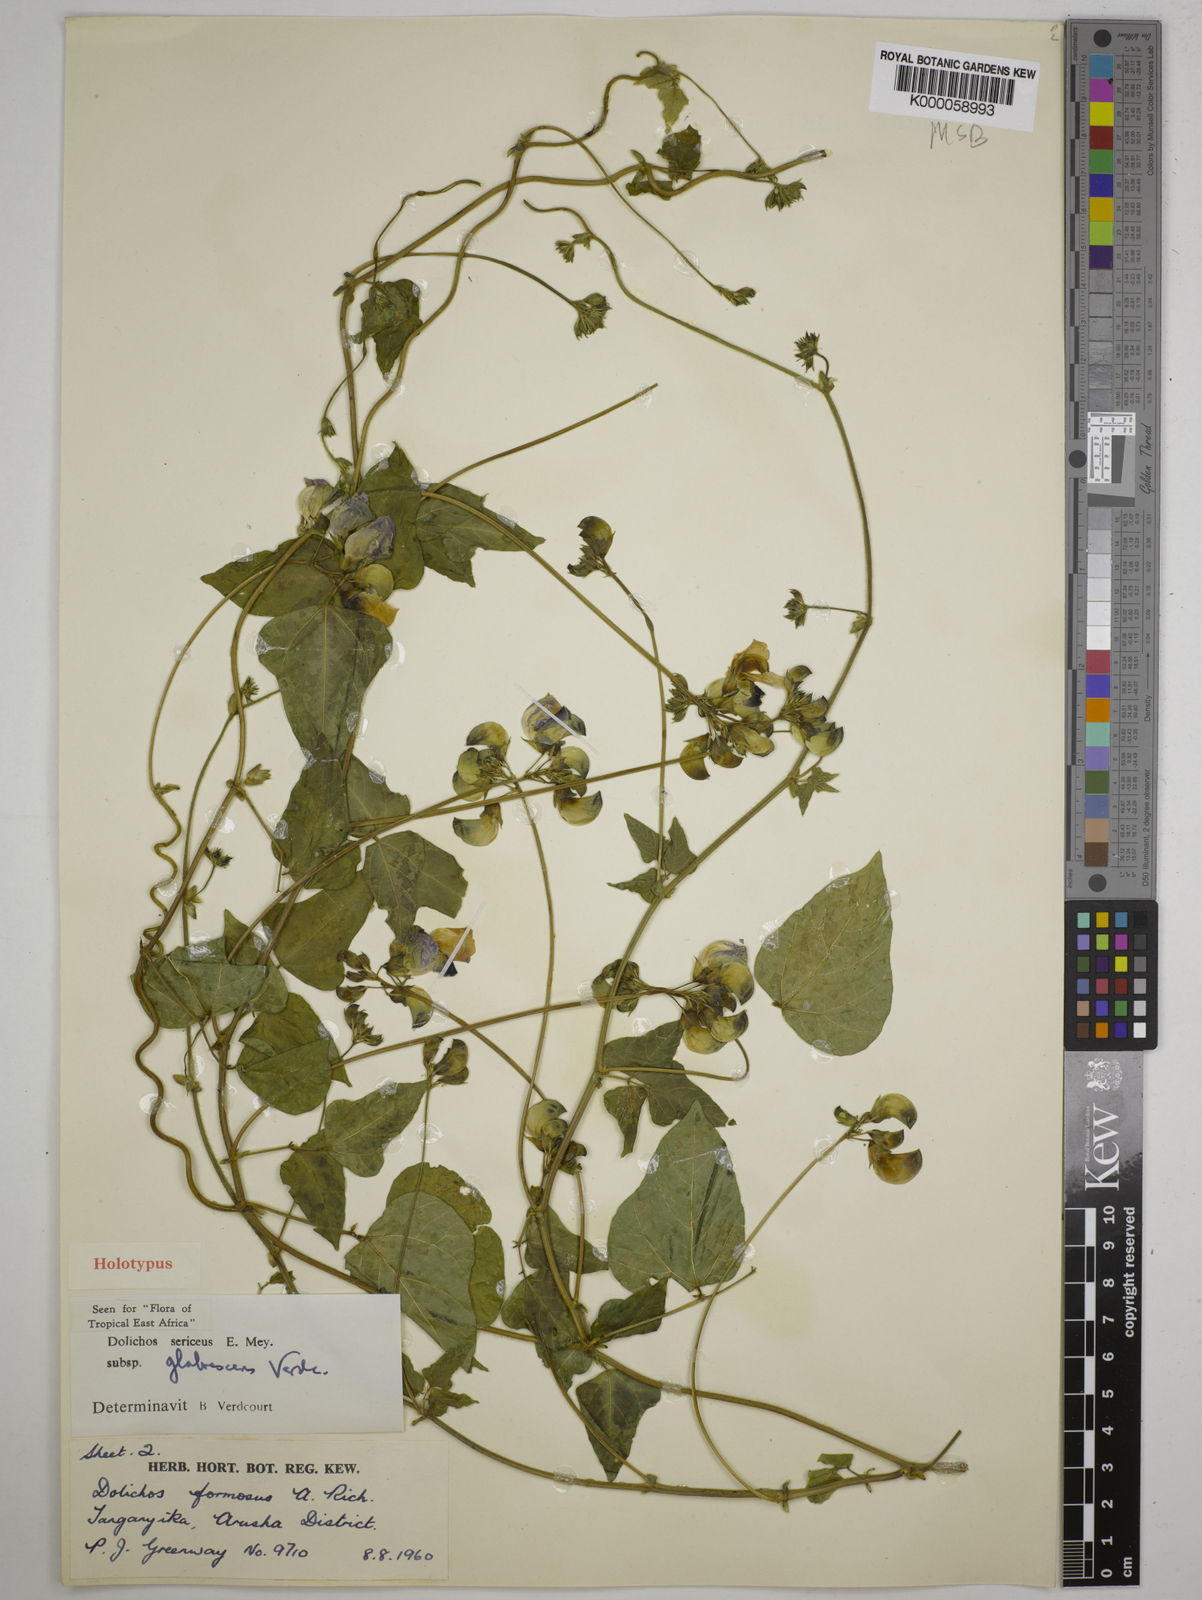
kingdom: Plantae
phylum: Tracheophyta
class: Magnoliopsida
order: Fabales
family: Fabaceae
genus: Dolichos
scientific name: Dolichos sericeus
